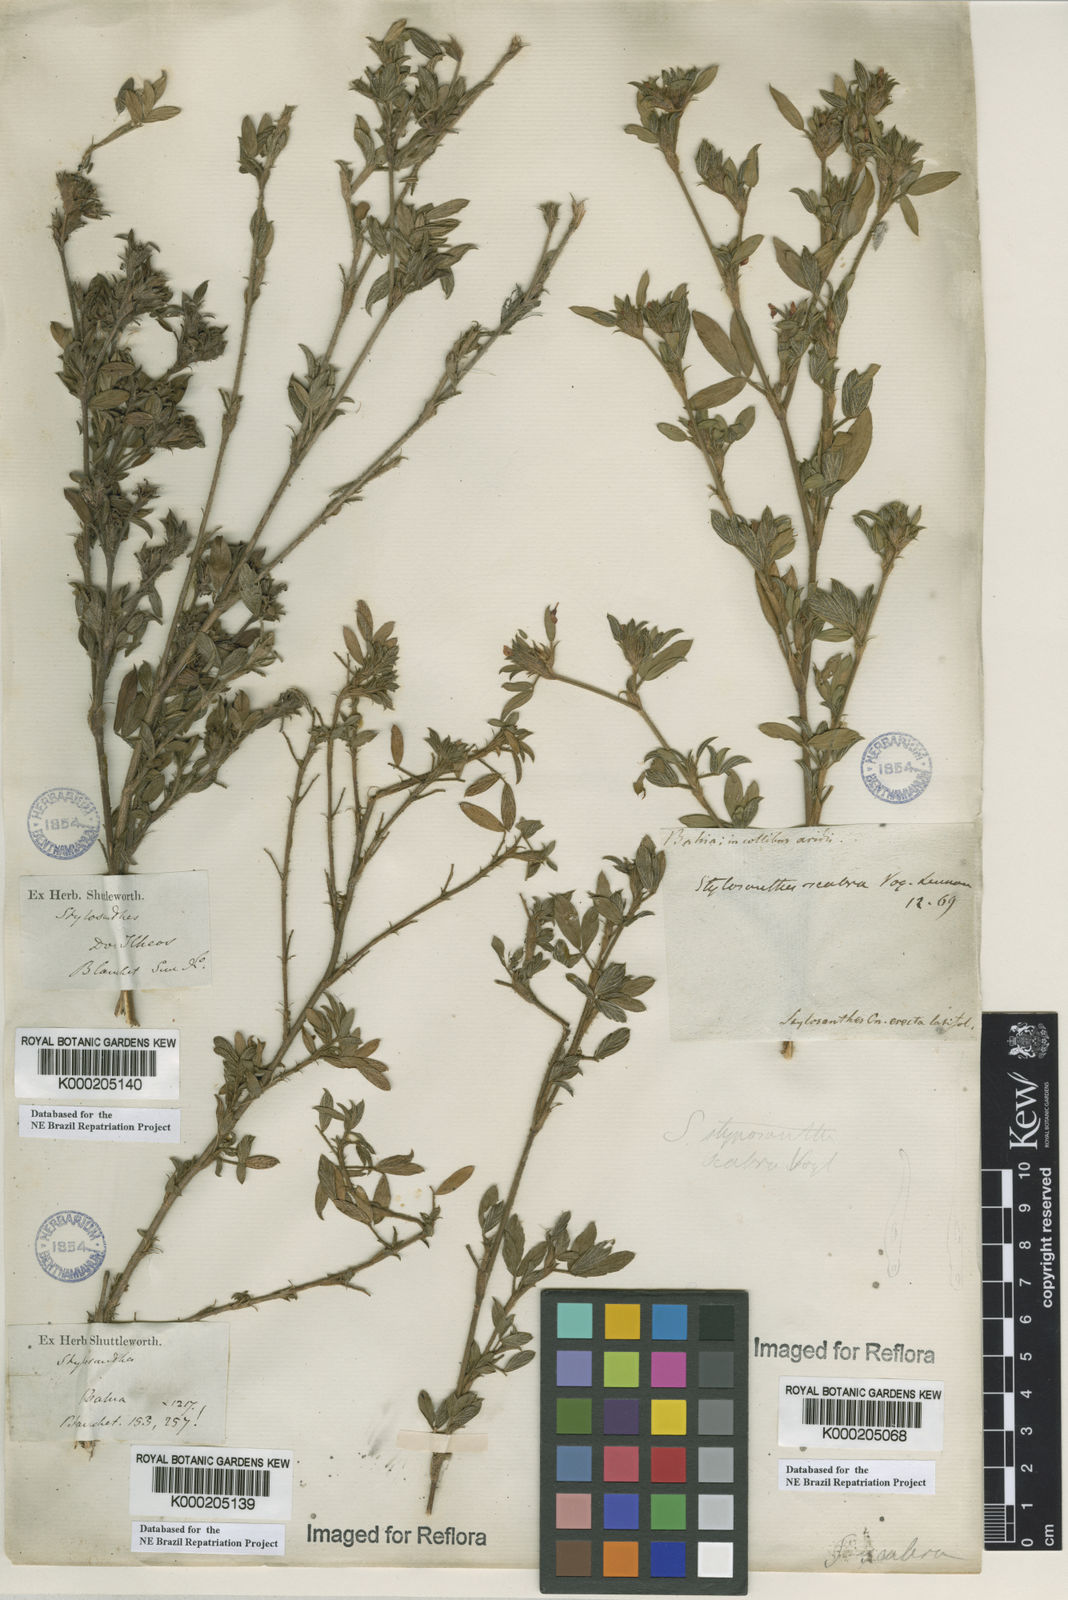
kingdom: Plantae
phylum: Tracheophyta
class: Magnoliopsida
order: Fabales
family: Fabaceae
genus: Stylosanthes
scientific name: Stylosanthes scabra
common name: Pencilflower
